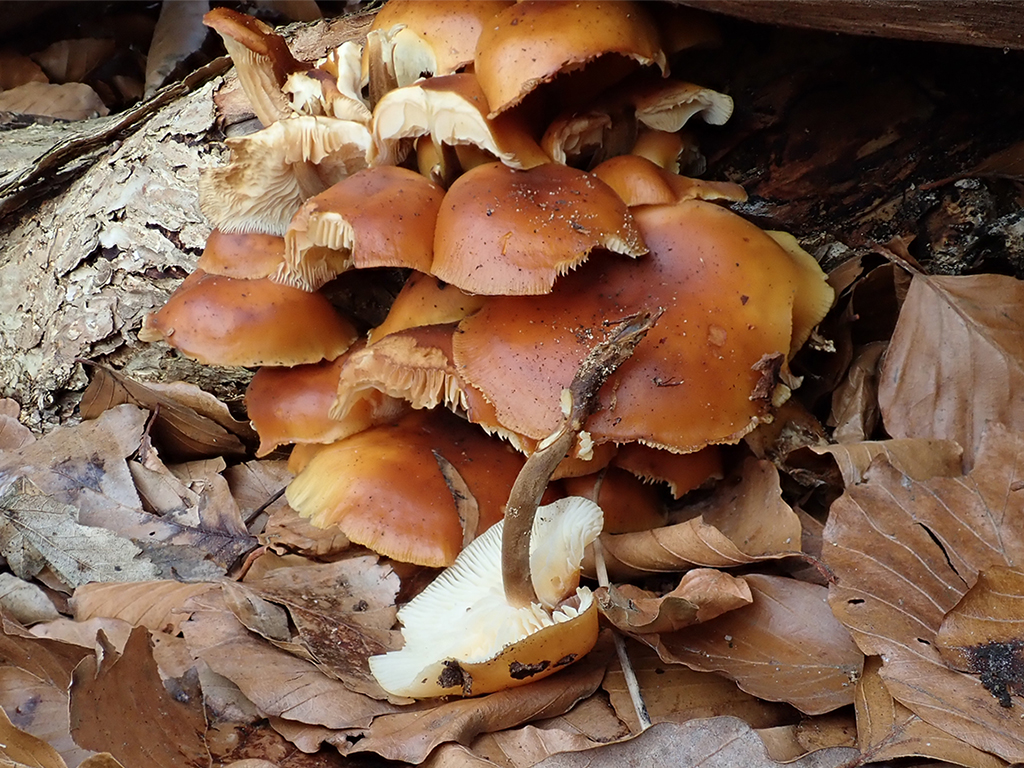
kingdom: Fungi
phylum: Basidiomycota
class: Agaricomycetes
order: Agaricales
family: Physalacriaceae
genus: Flammulina
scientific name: Flammulina velutipes
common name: gul fløjlsfod
